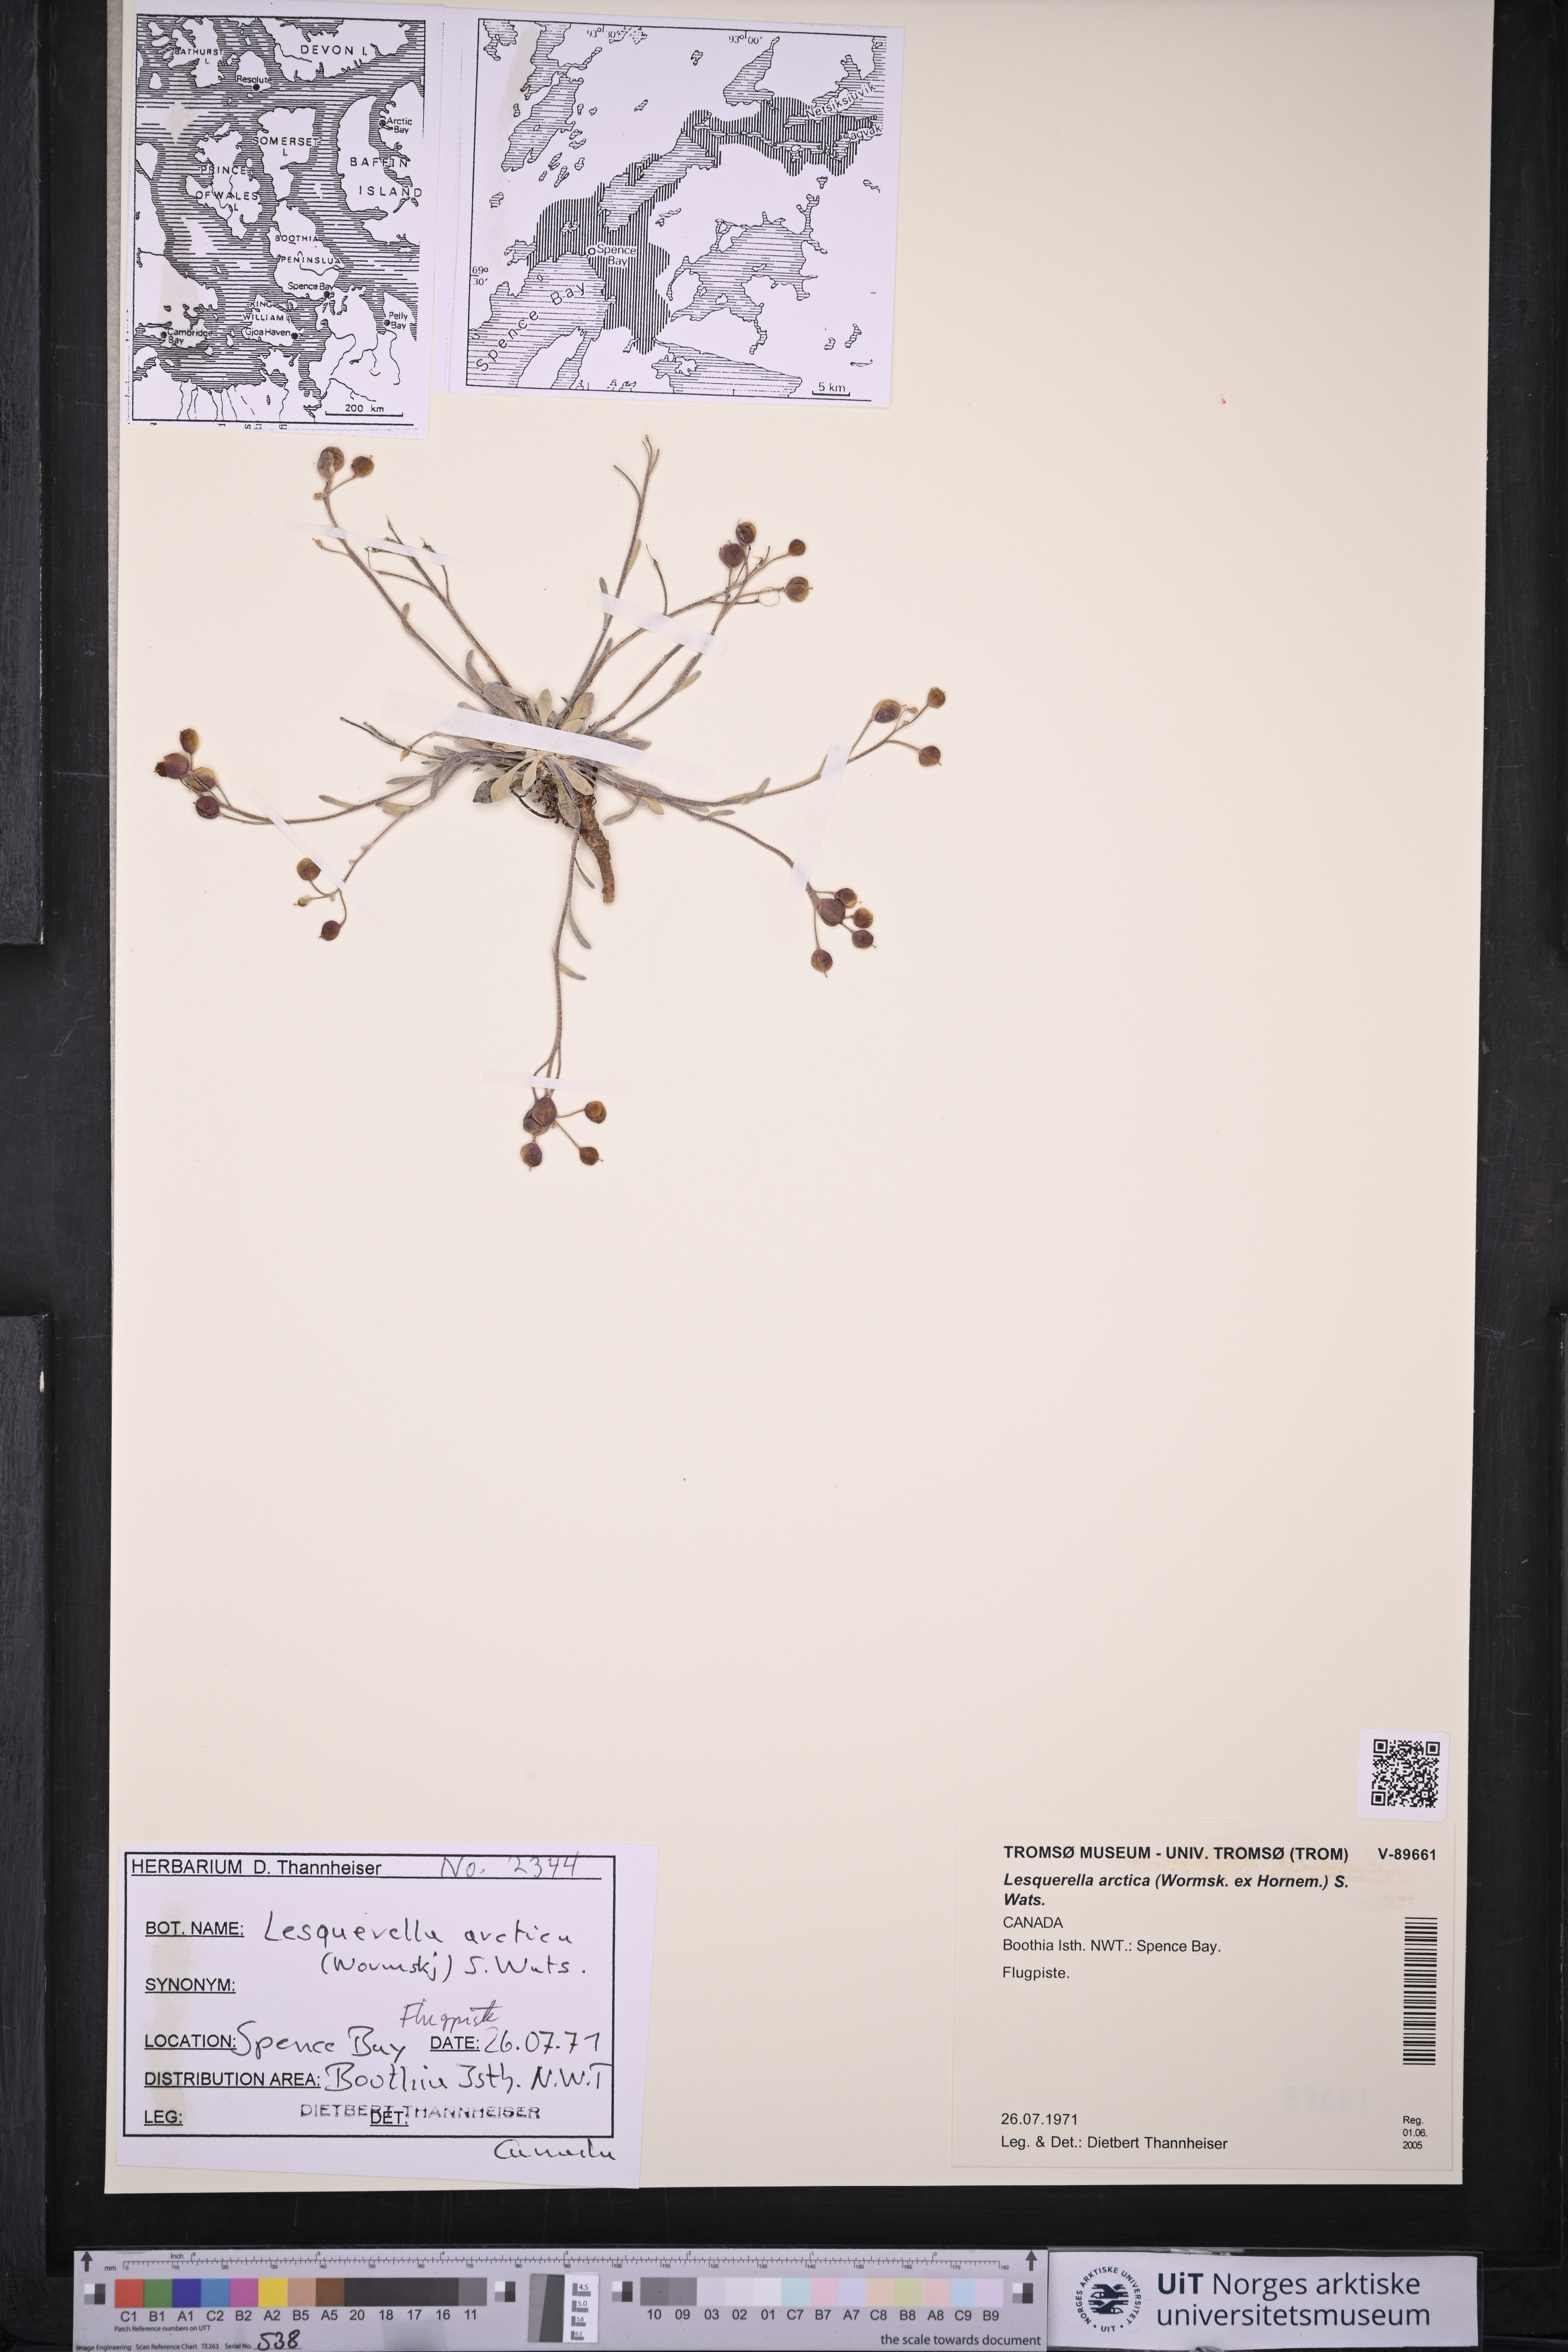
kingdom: Plantae
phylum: Tracheophyta
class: Magnoliopsida
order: Brassicales
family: Brassicaceae
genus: Physaria
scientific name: Physaria arctica
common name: Arctic bladderpod
